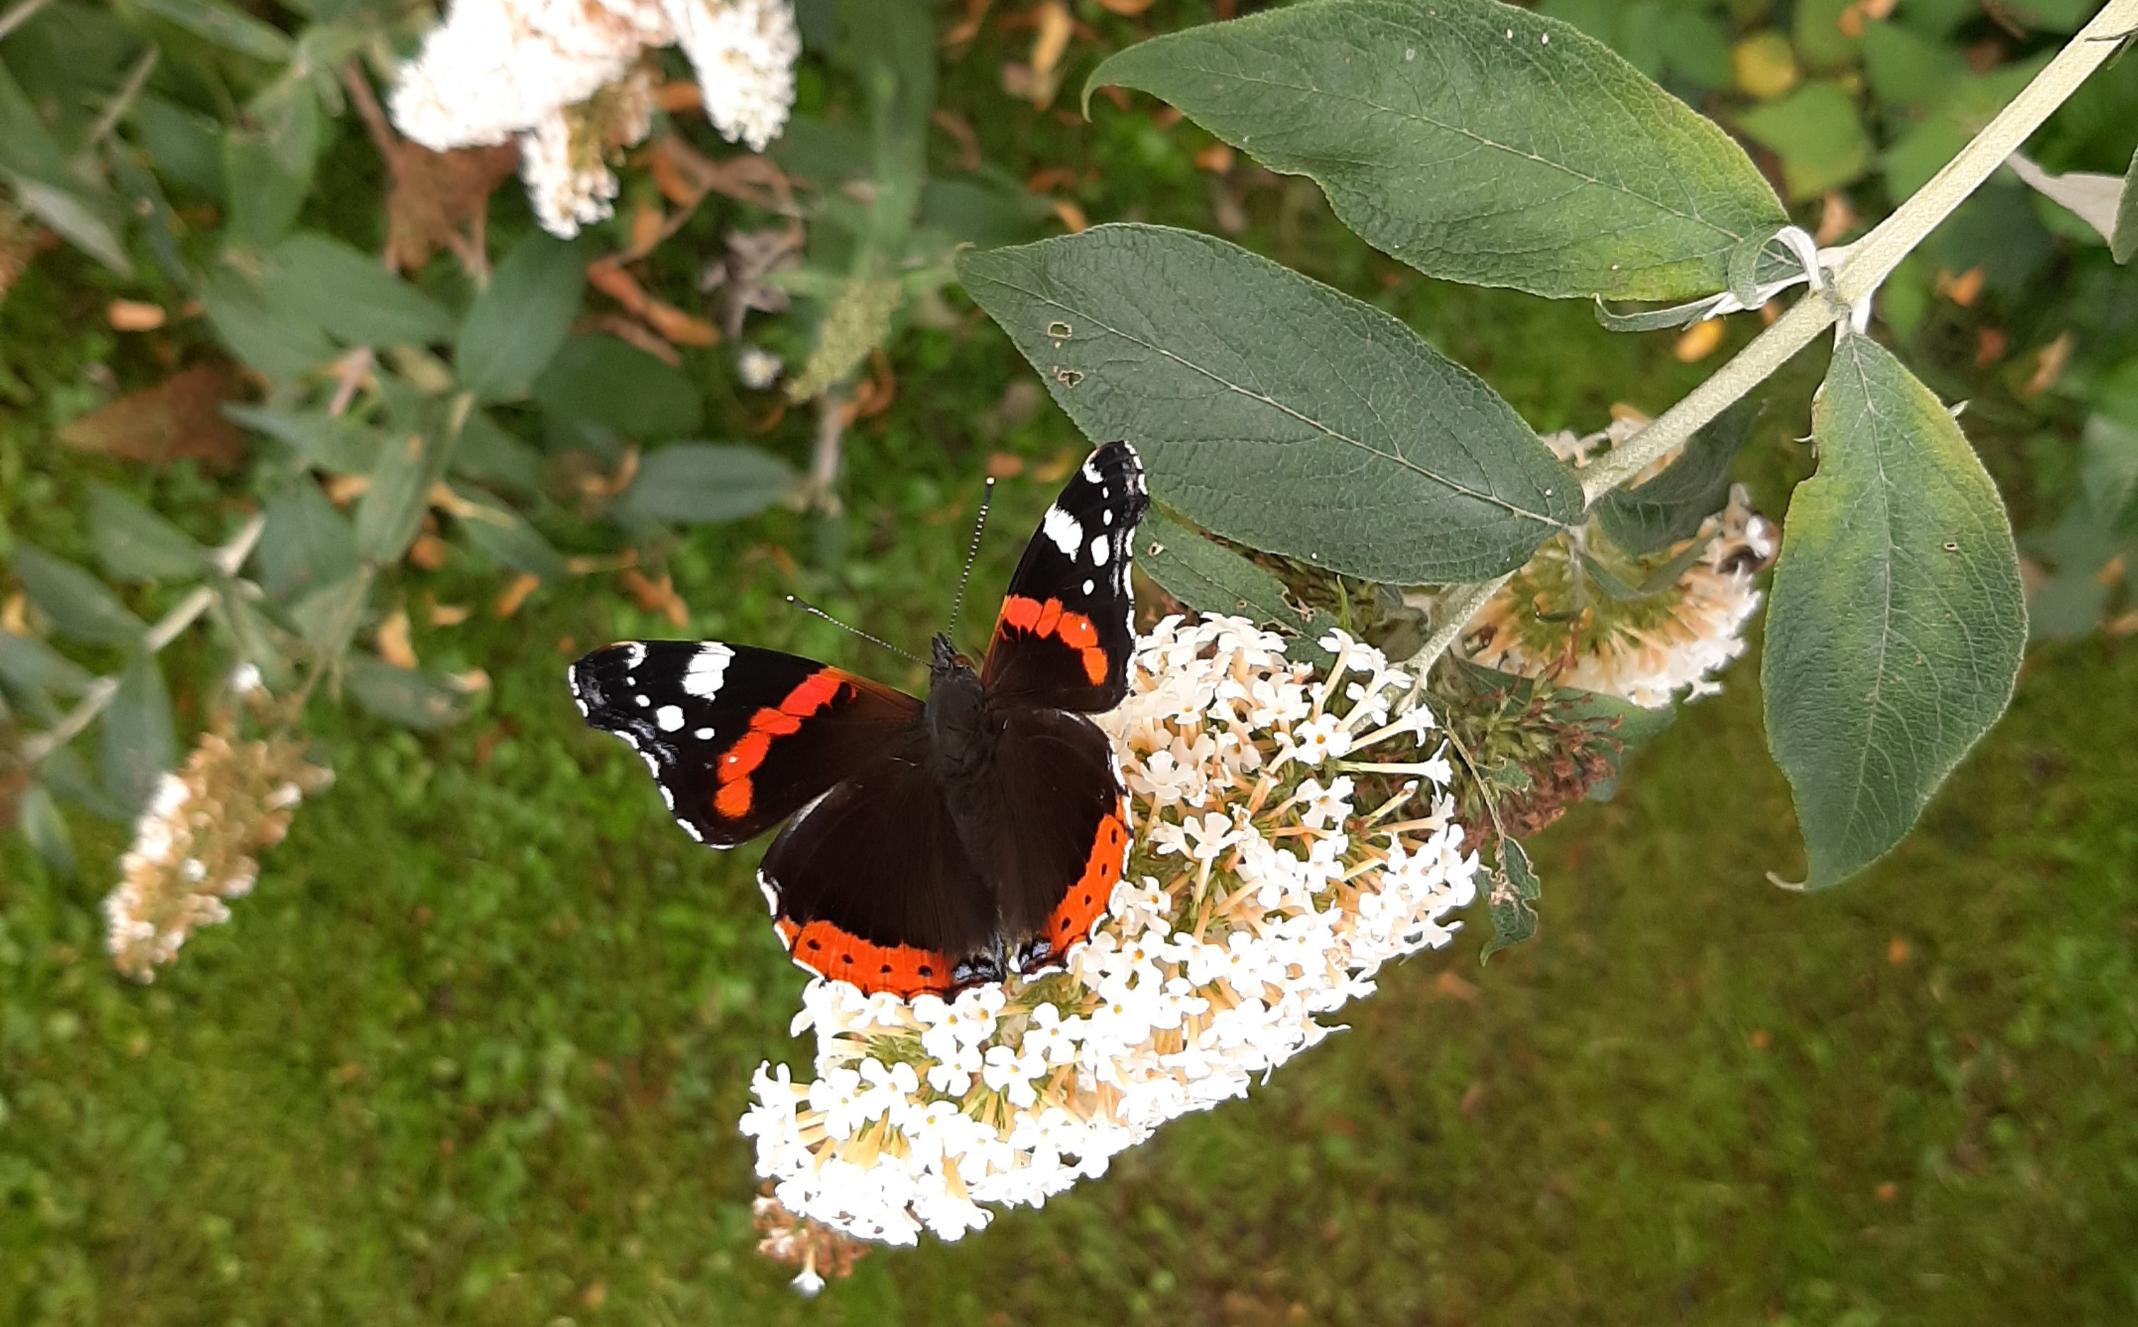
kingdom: Animalia
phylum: Arthropoda
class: Insecta
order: Lepidoptera
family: Nymphalidae
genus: Vanessa
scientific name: Vanessa atalanta
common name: Admiral
